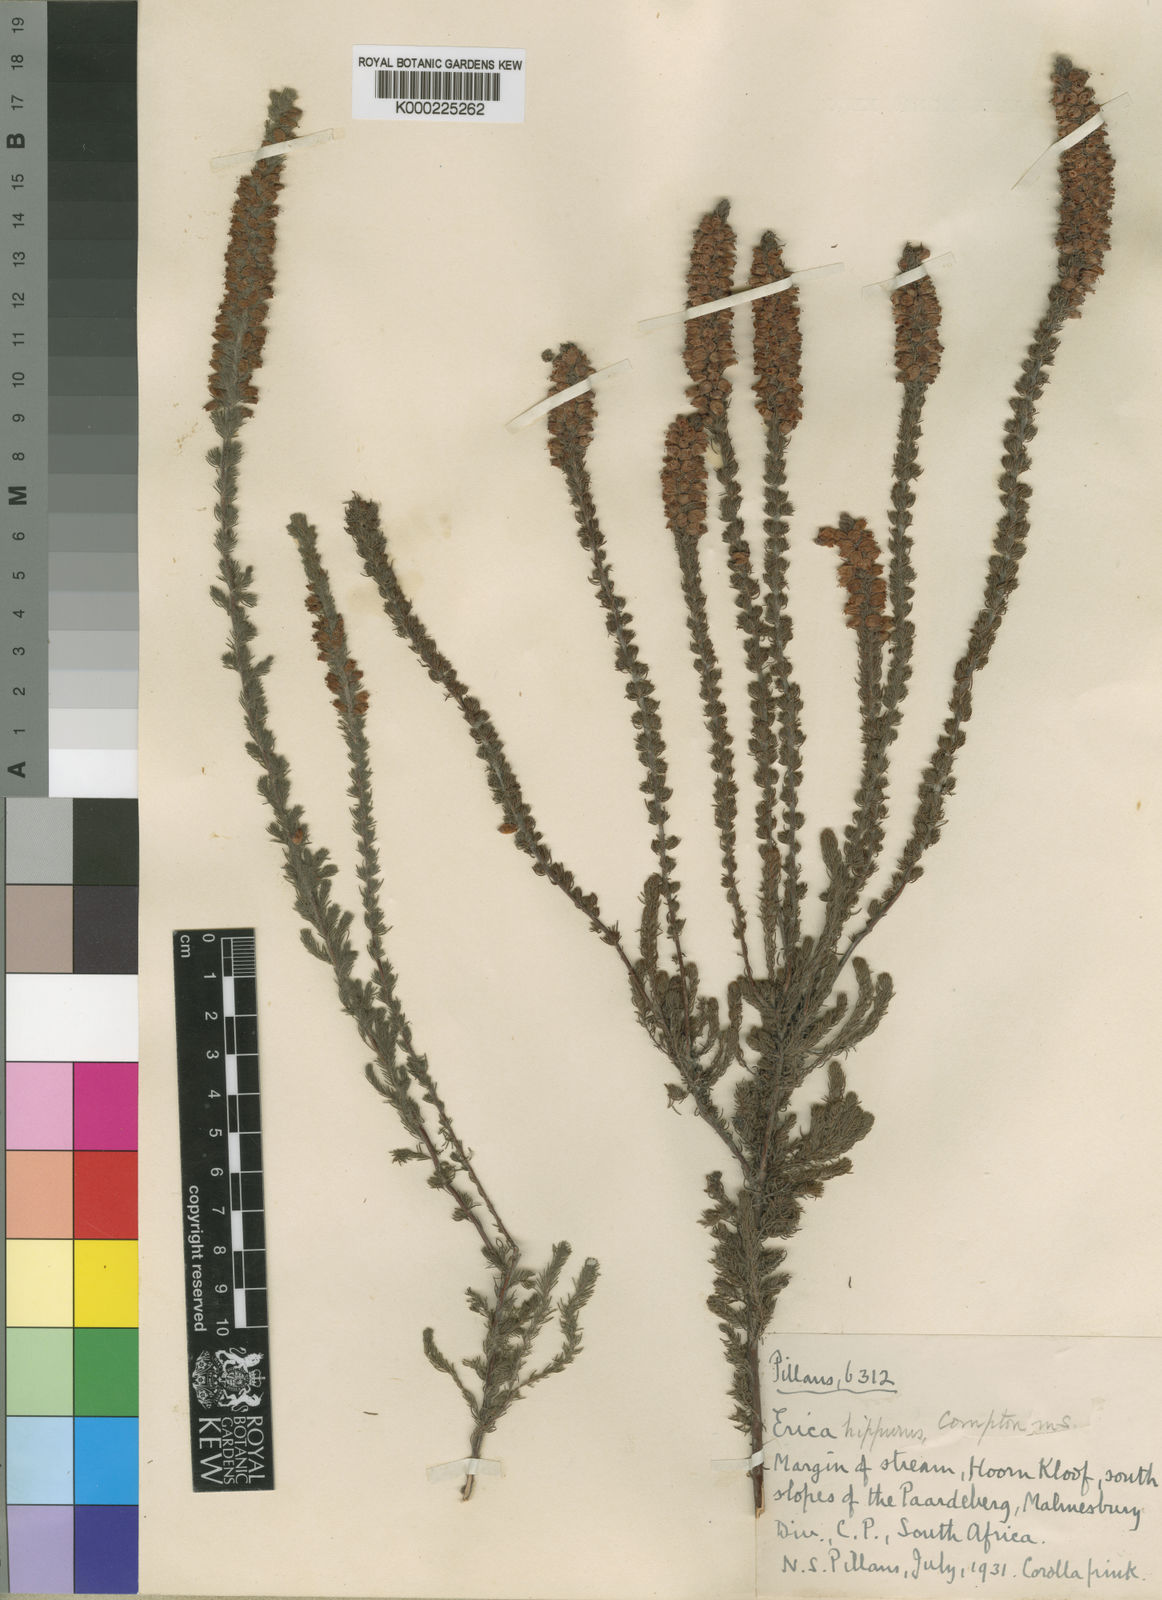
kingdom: Plantae
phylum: Tracheophyta
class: Magnoliopsida
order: Ericales
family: Ericaceae
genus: Erica
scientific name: Erica hippurus
